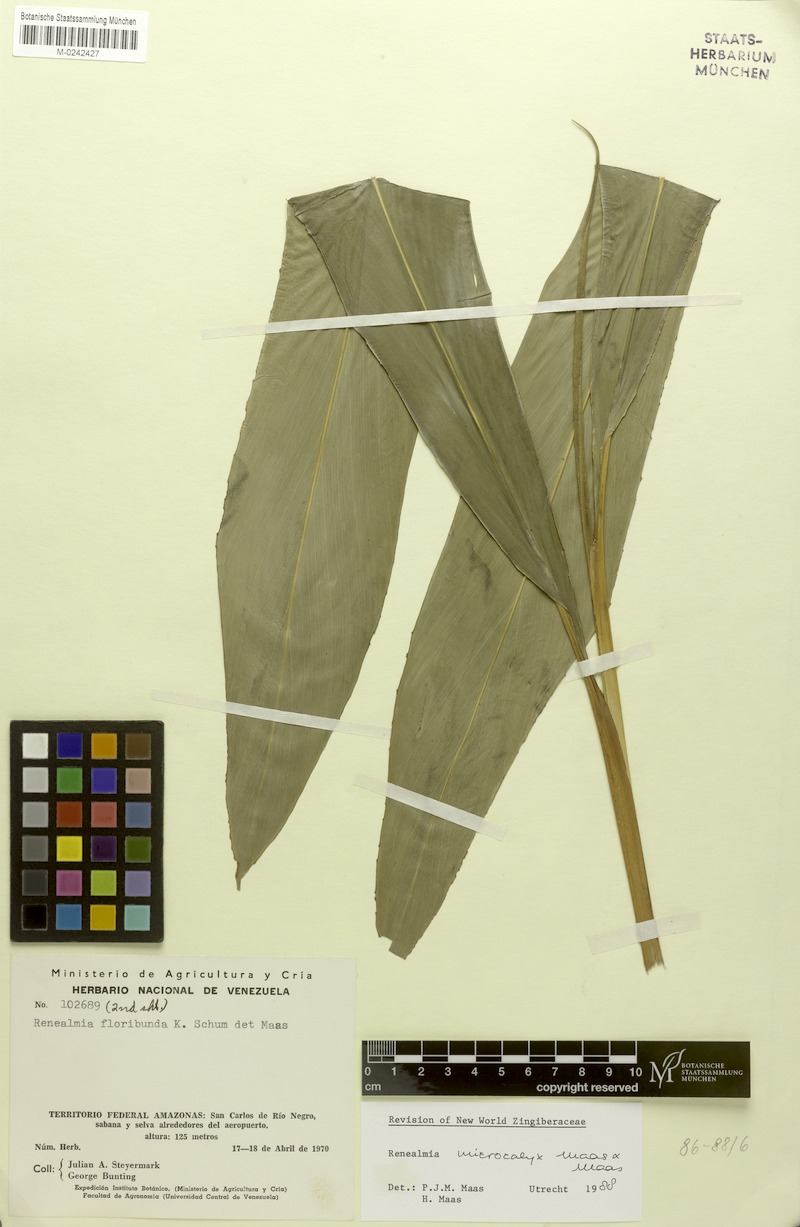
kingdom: Plantae
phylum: Tracheophyta
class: Liliopsida
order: Zingiberales
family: Zingiberaceae
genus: Renealmia
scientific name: Renealmia microcalyx
